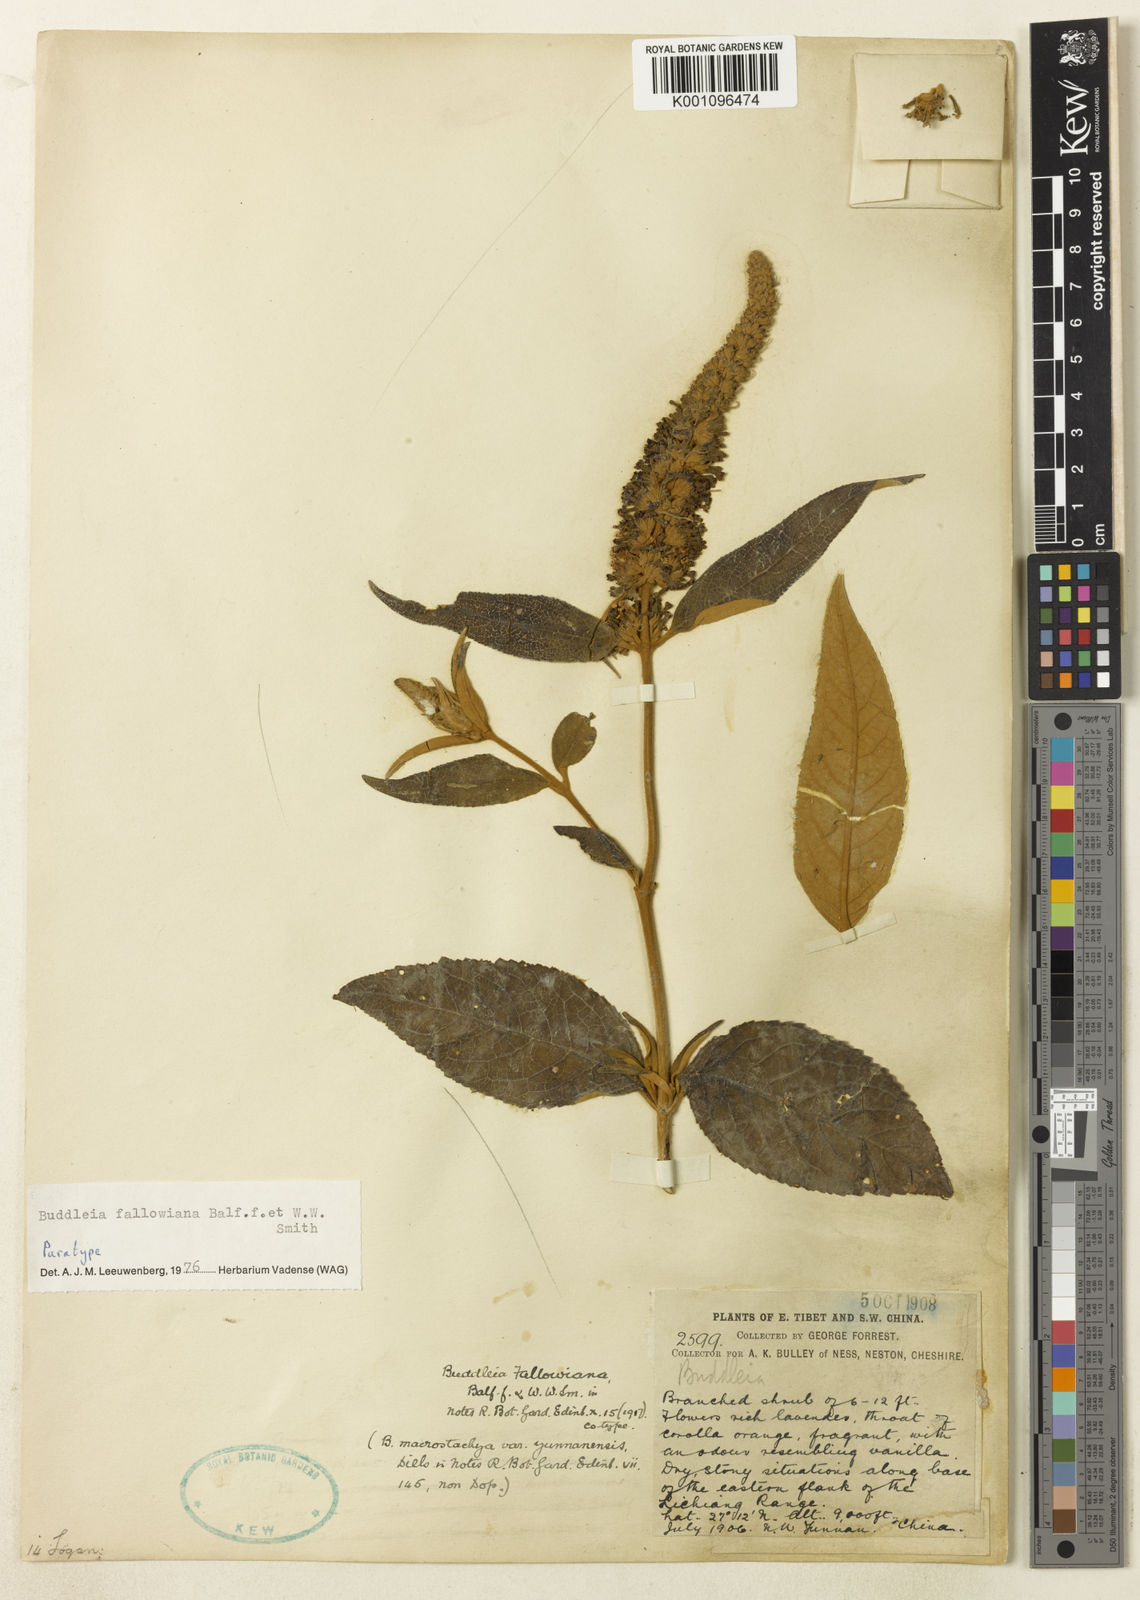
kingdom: Plantae
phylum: Tracheophyta
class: Magnoliopsida
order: Lamiales
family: Scrophulariaceae
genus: Buddleja
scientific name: Buddleja fallowiana
